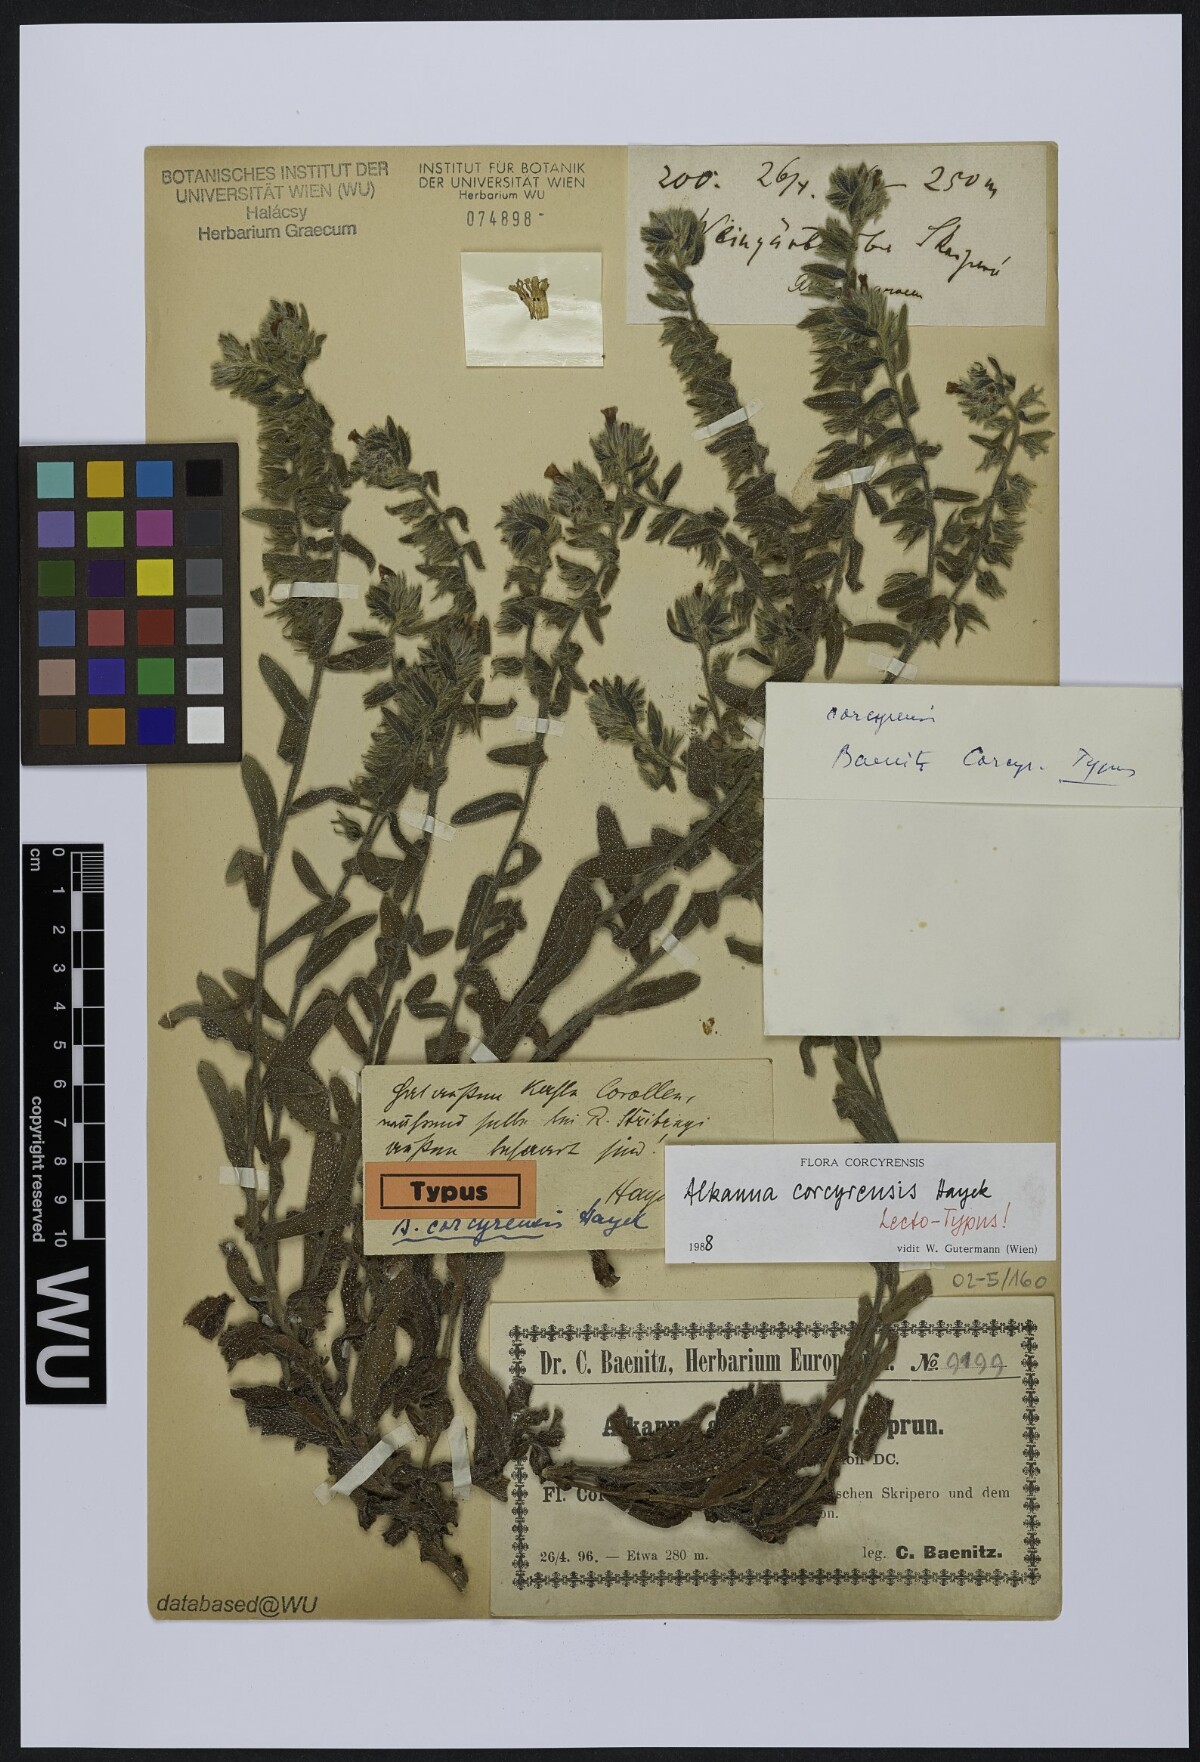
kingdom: Plantae
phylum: Tracheophyta
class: Magnoliopsida
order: Boraginales
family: Boraginaceae
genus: Alkanna
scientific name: Alkanna corcyrensis
